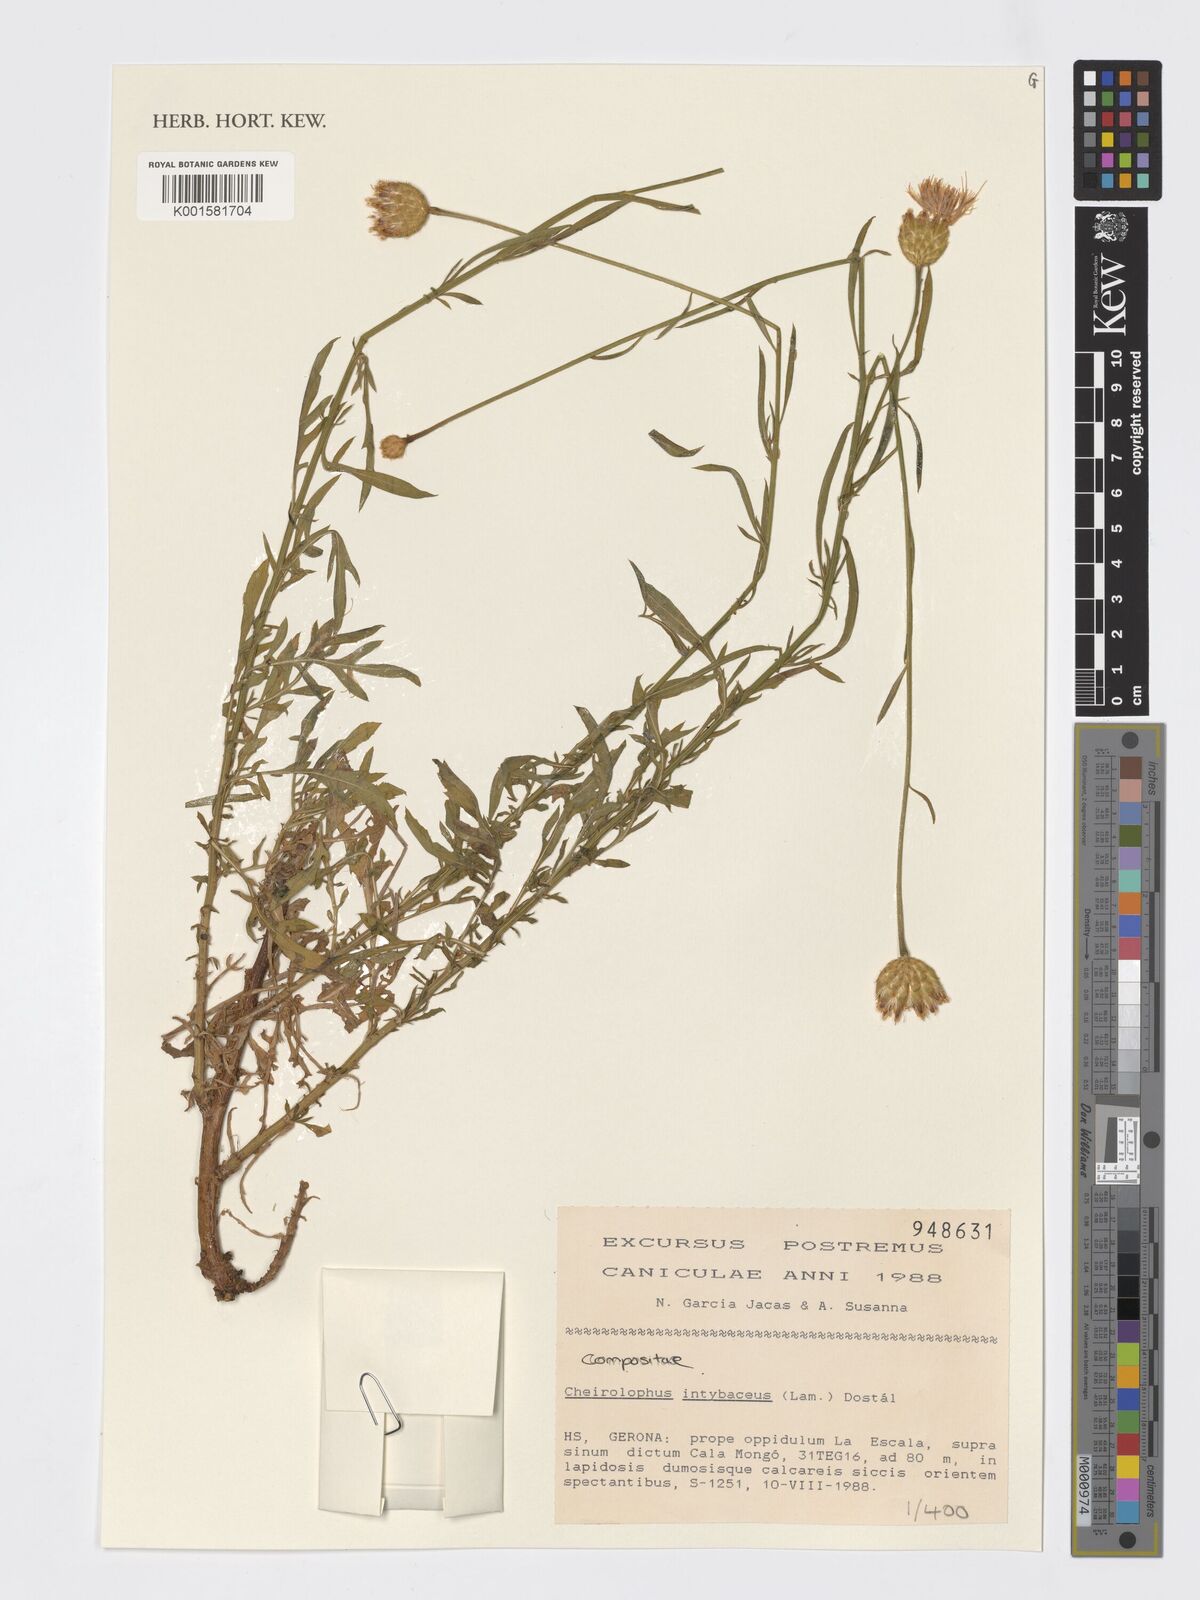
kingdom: Plantae
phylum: Tracheophyta
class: Magnoliopsida
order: Asterales
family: Asteraceae
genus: Cheirolophus
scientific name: Cheirolophus intybaceus
